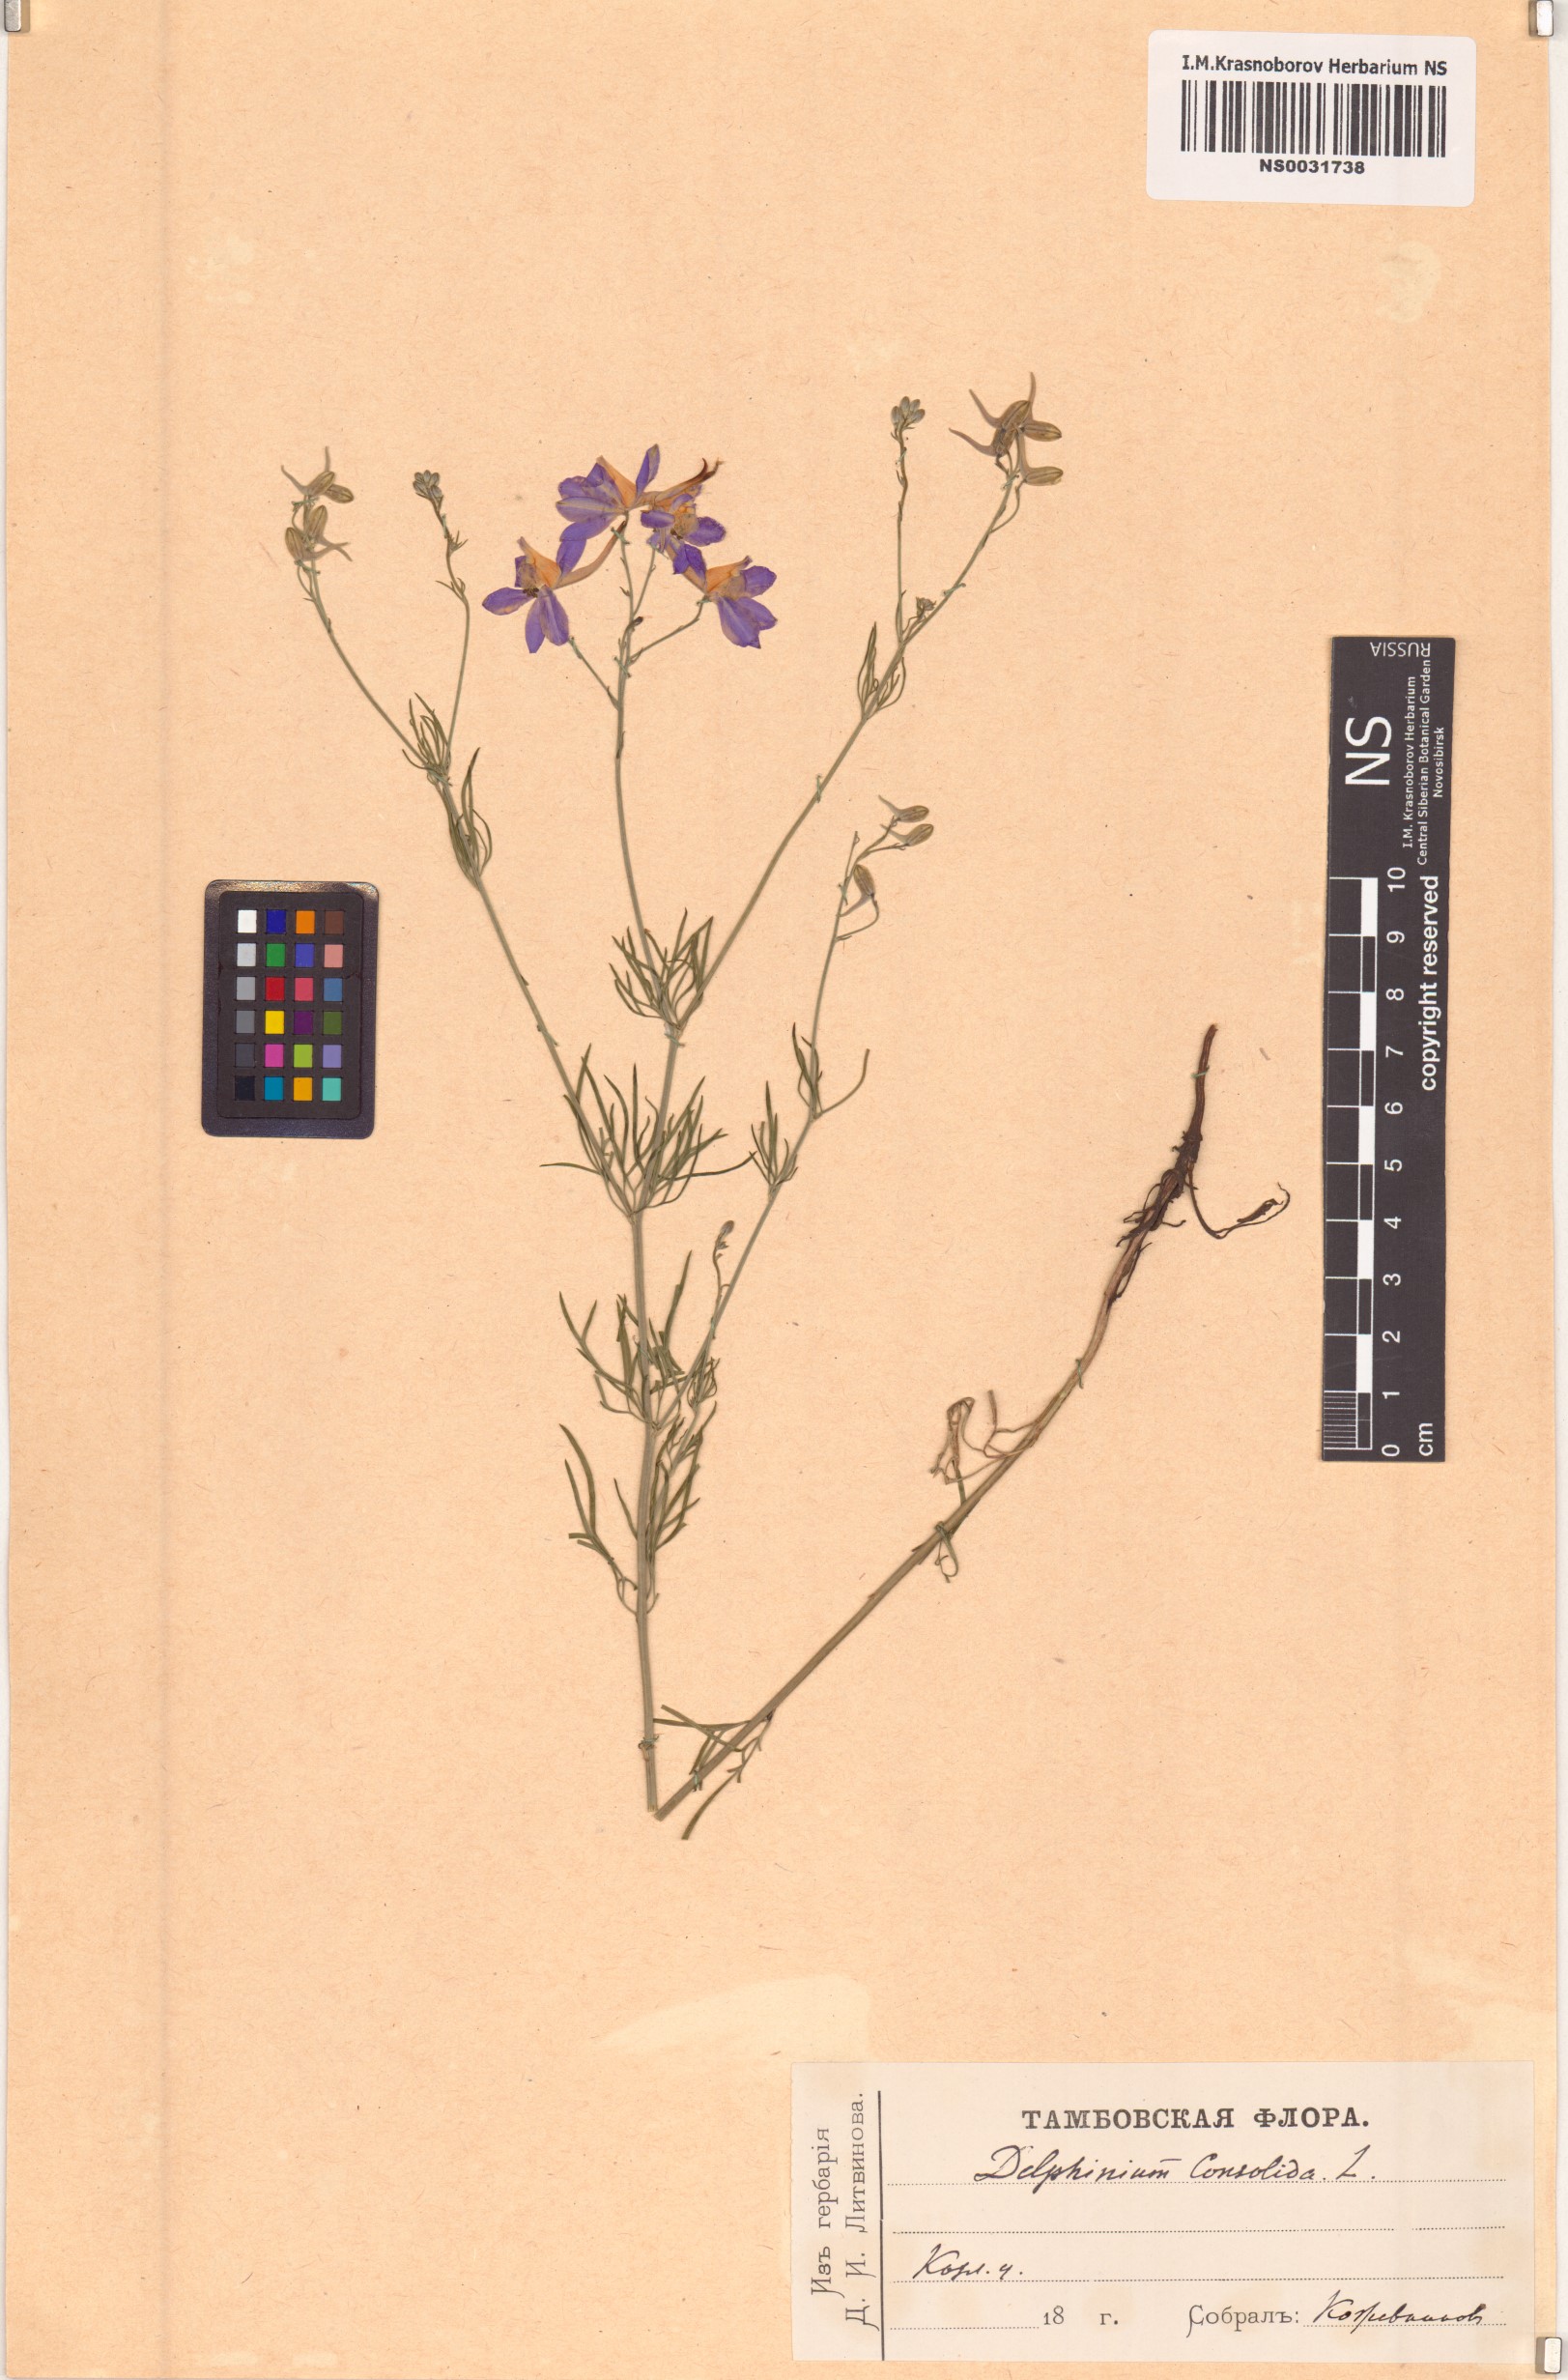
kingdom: Plantae
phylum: Tracheophyta
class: Magnoliopsida
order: Ranunculales
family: Ranunculaceae
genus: Delphinium
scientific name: Delphinium consolida
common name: Branching larkspur
